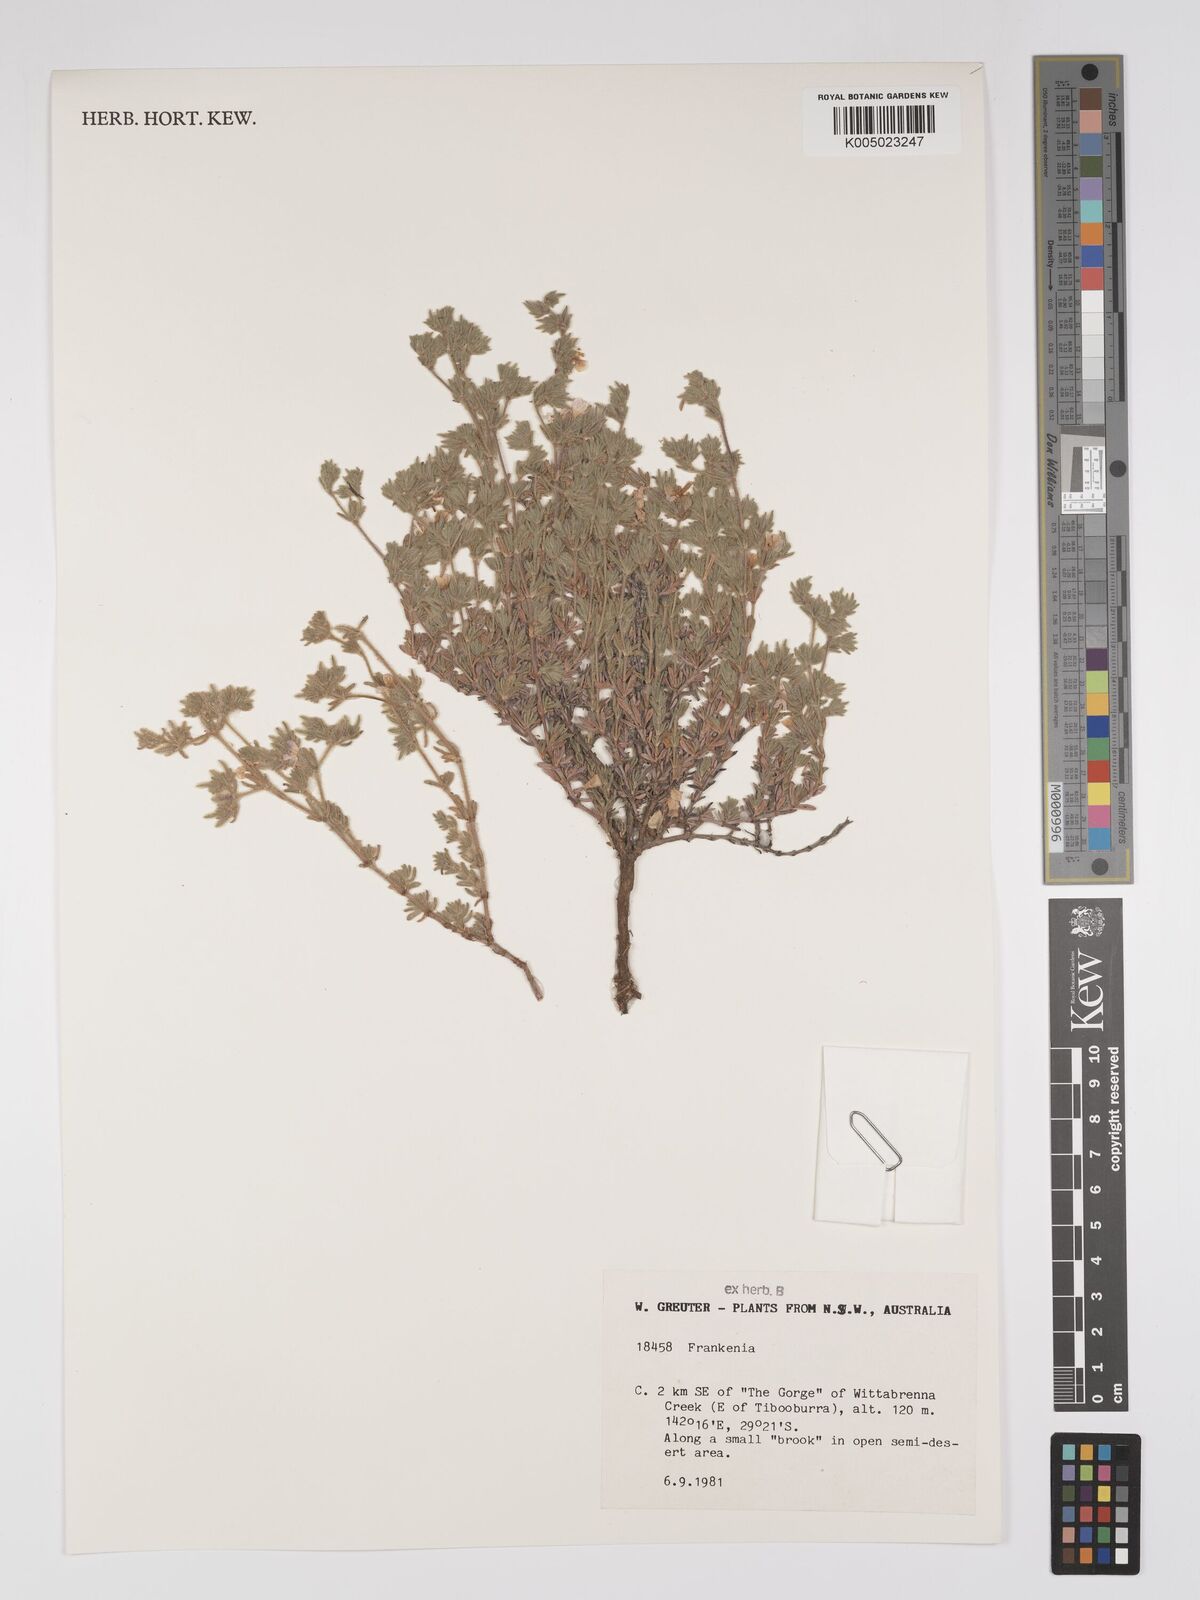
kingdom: Plantae
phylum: Tracheophyta
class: Magnoliopsida
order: Caryophyllales
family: Frankeniaceae
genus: Frankenia
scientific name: Frankenia
